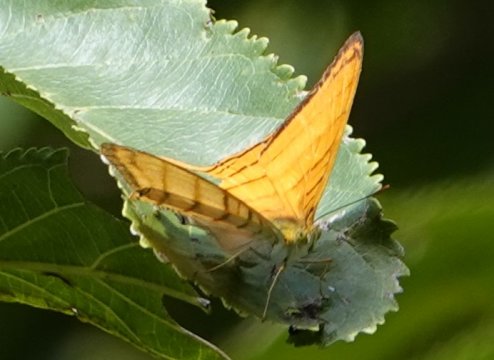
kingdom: Animalia
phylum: Arthropoda
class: Insecta
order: Lepidoptera
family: Nymphalidae
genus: Marpesia
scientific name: Marpesia berania
